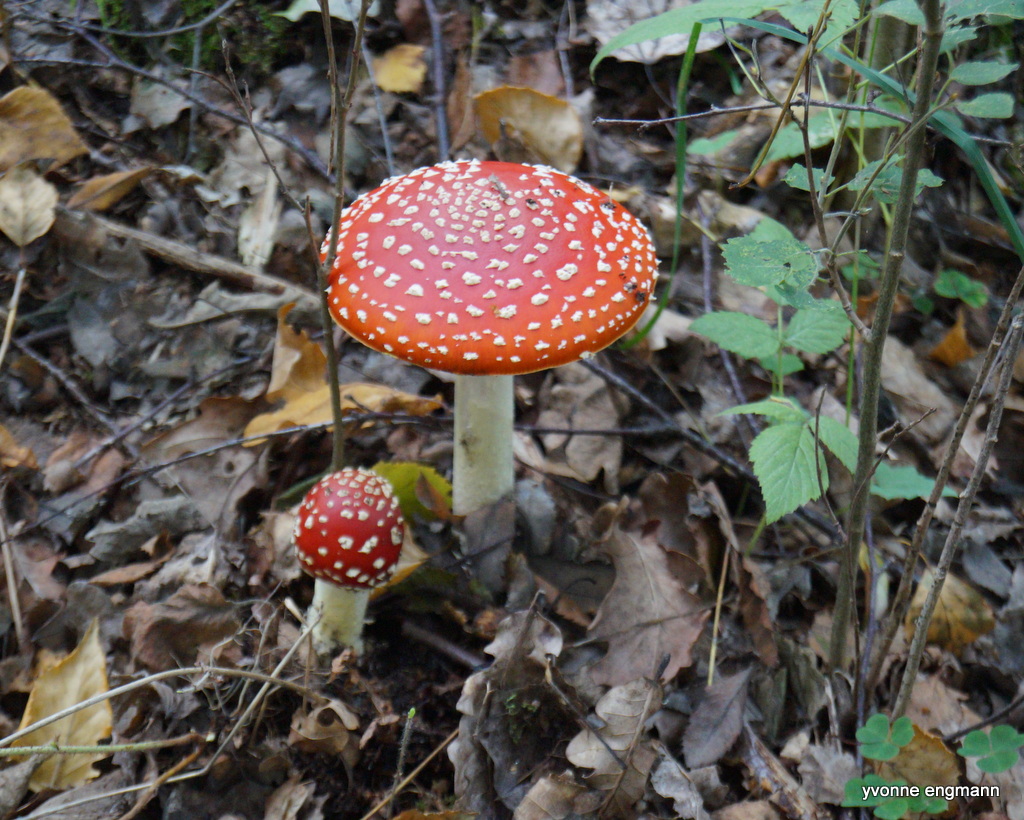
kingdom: Fungi
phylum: Basidiomycota
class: Agaricomycetes
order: Agaricales
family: Amanitaceae
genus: Amanita
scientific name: Amanita muscaria
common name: rød fluesvamp
